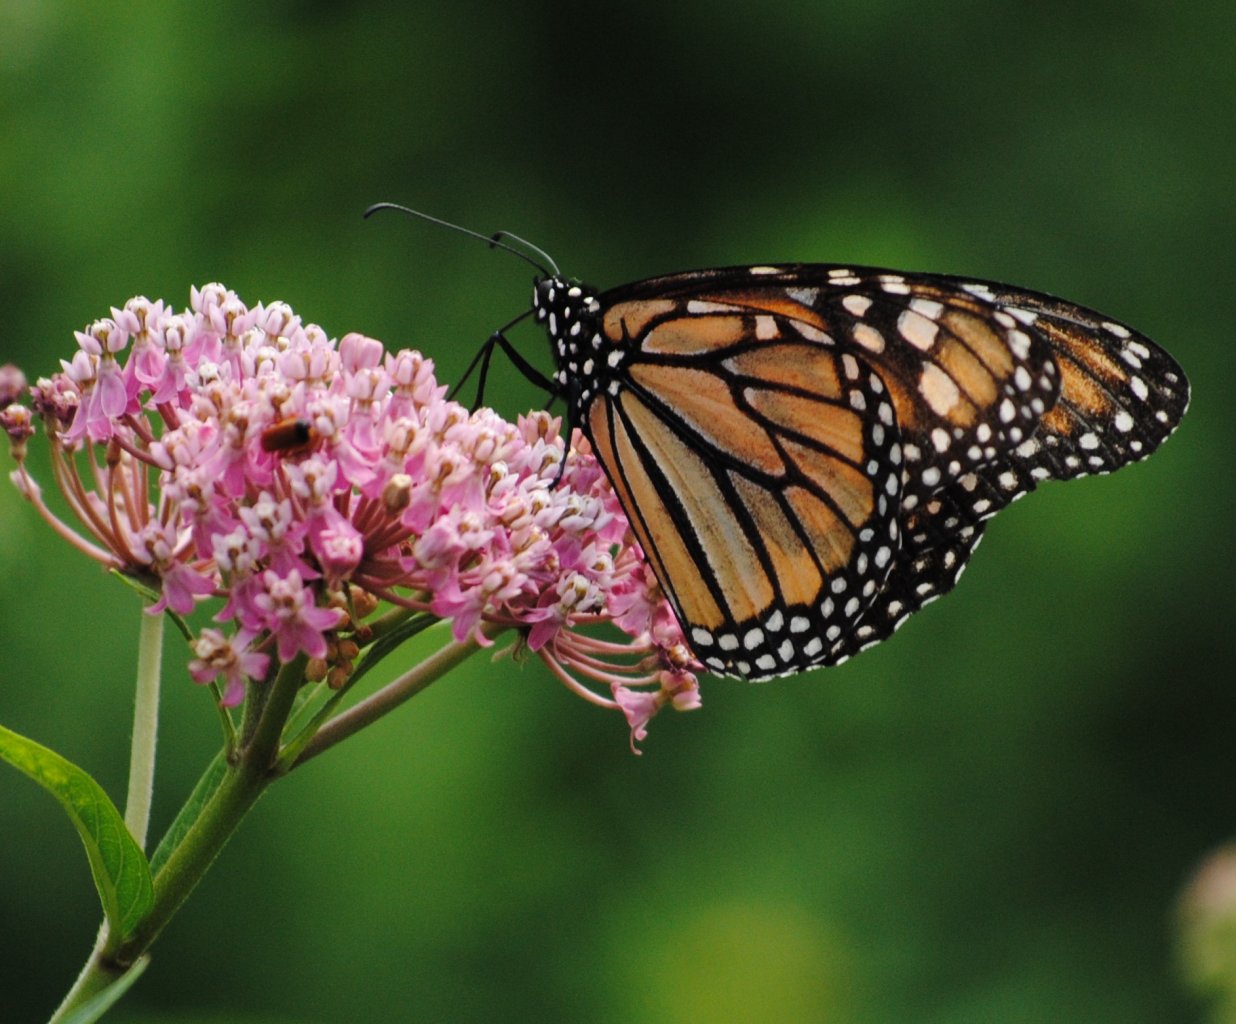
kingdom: Animalia
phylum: Arthropoda
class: Insecta
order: Lepidoptera
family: Nymphalidae
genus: Danaus
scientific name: Danaus plexippus
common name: Monarch
